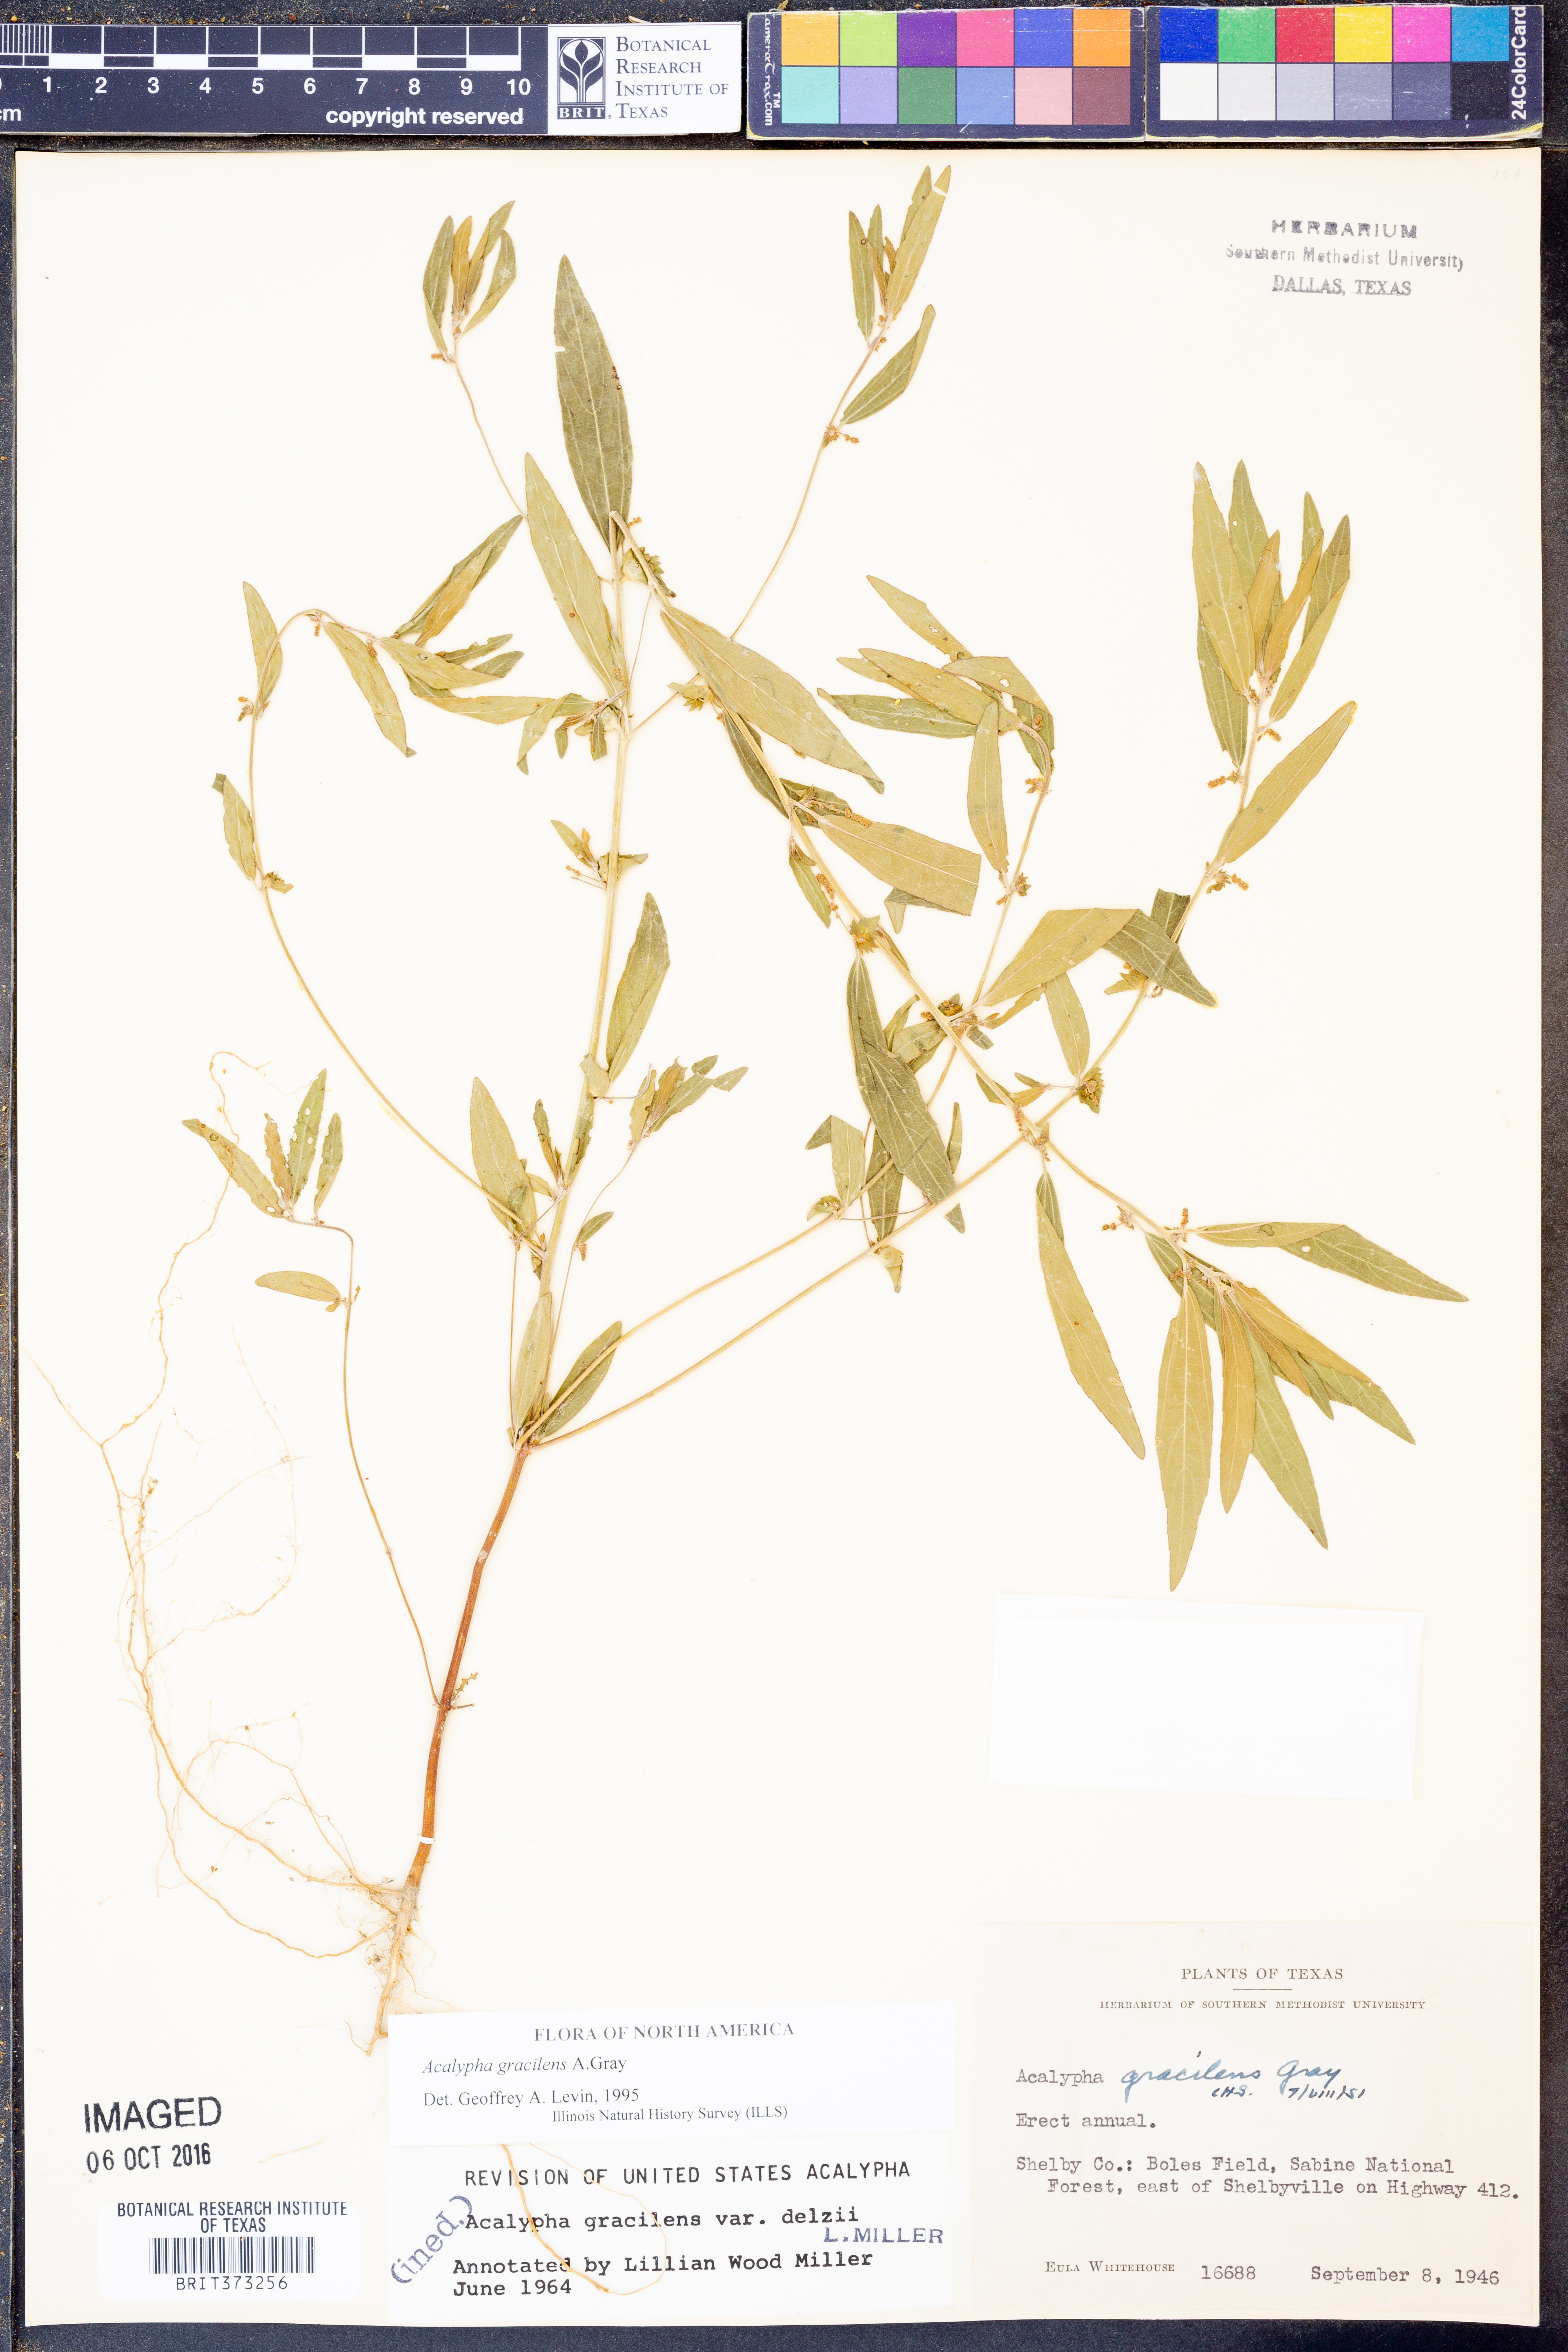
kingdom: Plantae
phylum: Tracheophyta
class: Magnoliopsida
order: Malpighiales
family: Euphorbiaceae
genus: Acalypha
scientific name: Acalypha gracilens
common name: Slender three-seeded mercury
